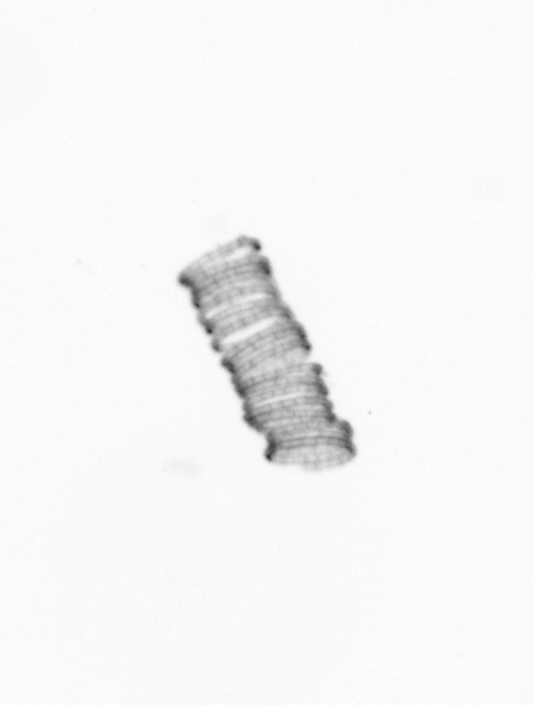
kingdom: Chromista
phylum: Ochrophyta
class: Bacillariophyceae
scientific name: Bacillariophyceae
